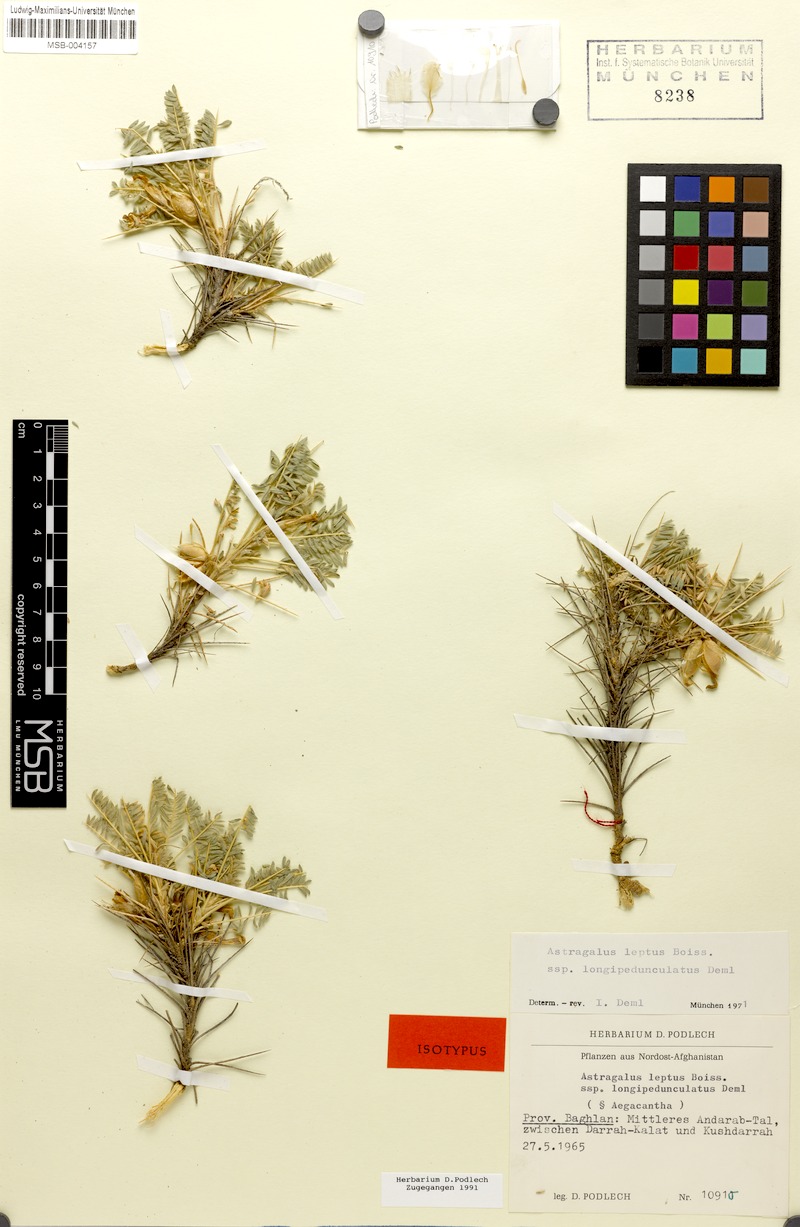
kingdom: Plantae
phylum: Tracheophyta
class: Magnoliopsida
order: Fabales
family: Fabaceae
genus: Astragalus
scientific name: Astragalus leptus
